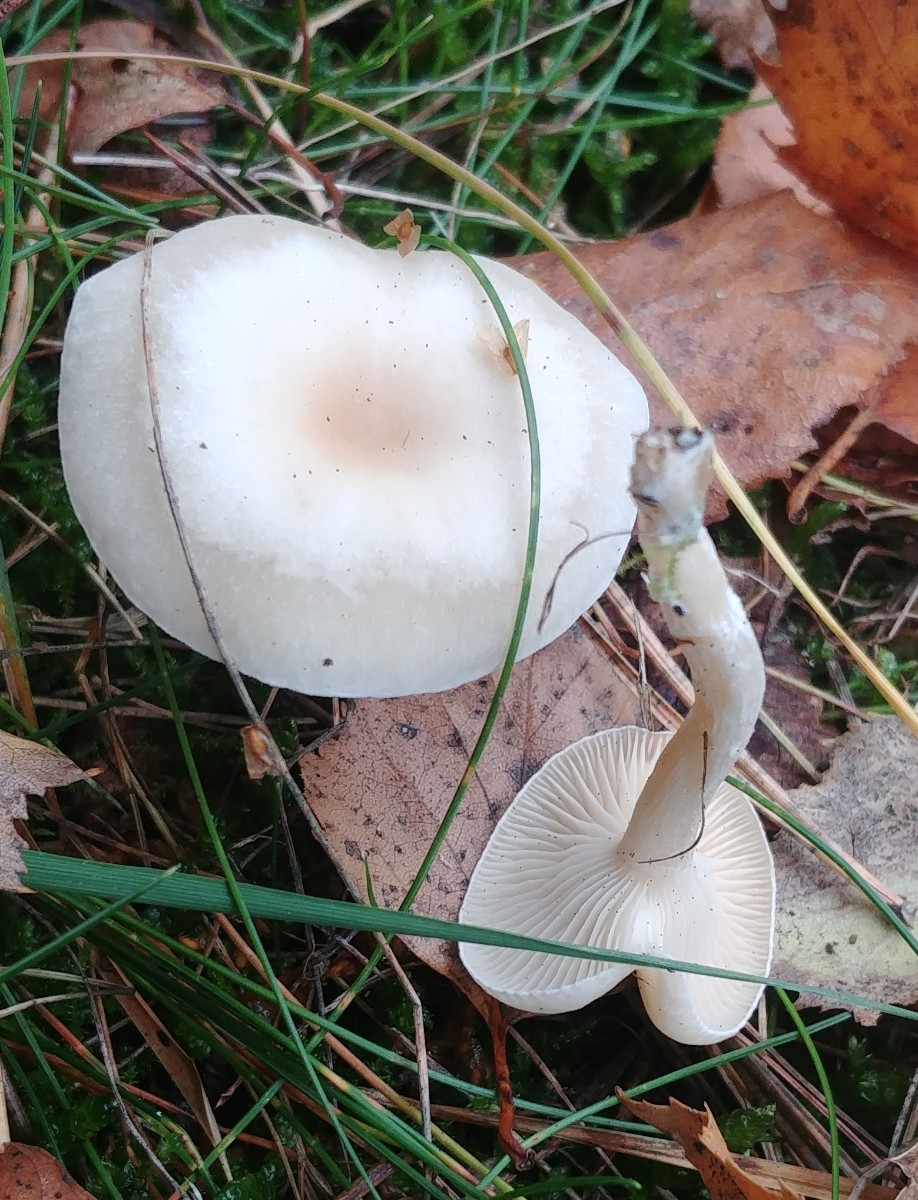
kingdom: Fungi
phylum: Basidiomycota
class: Agaricomycetes
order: Agaricales
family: Tricholomataceae
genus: Clitocybe
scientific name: Clitocybe
